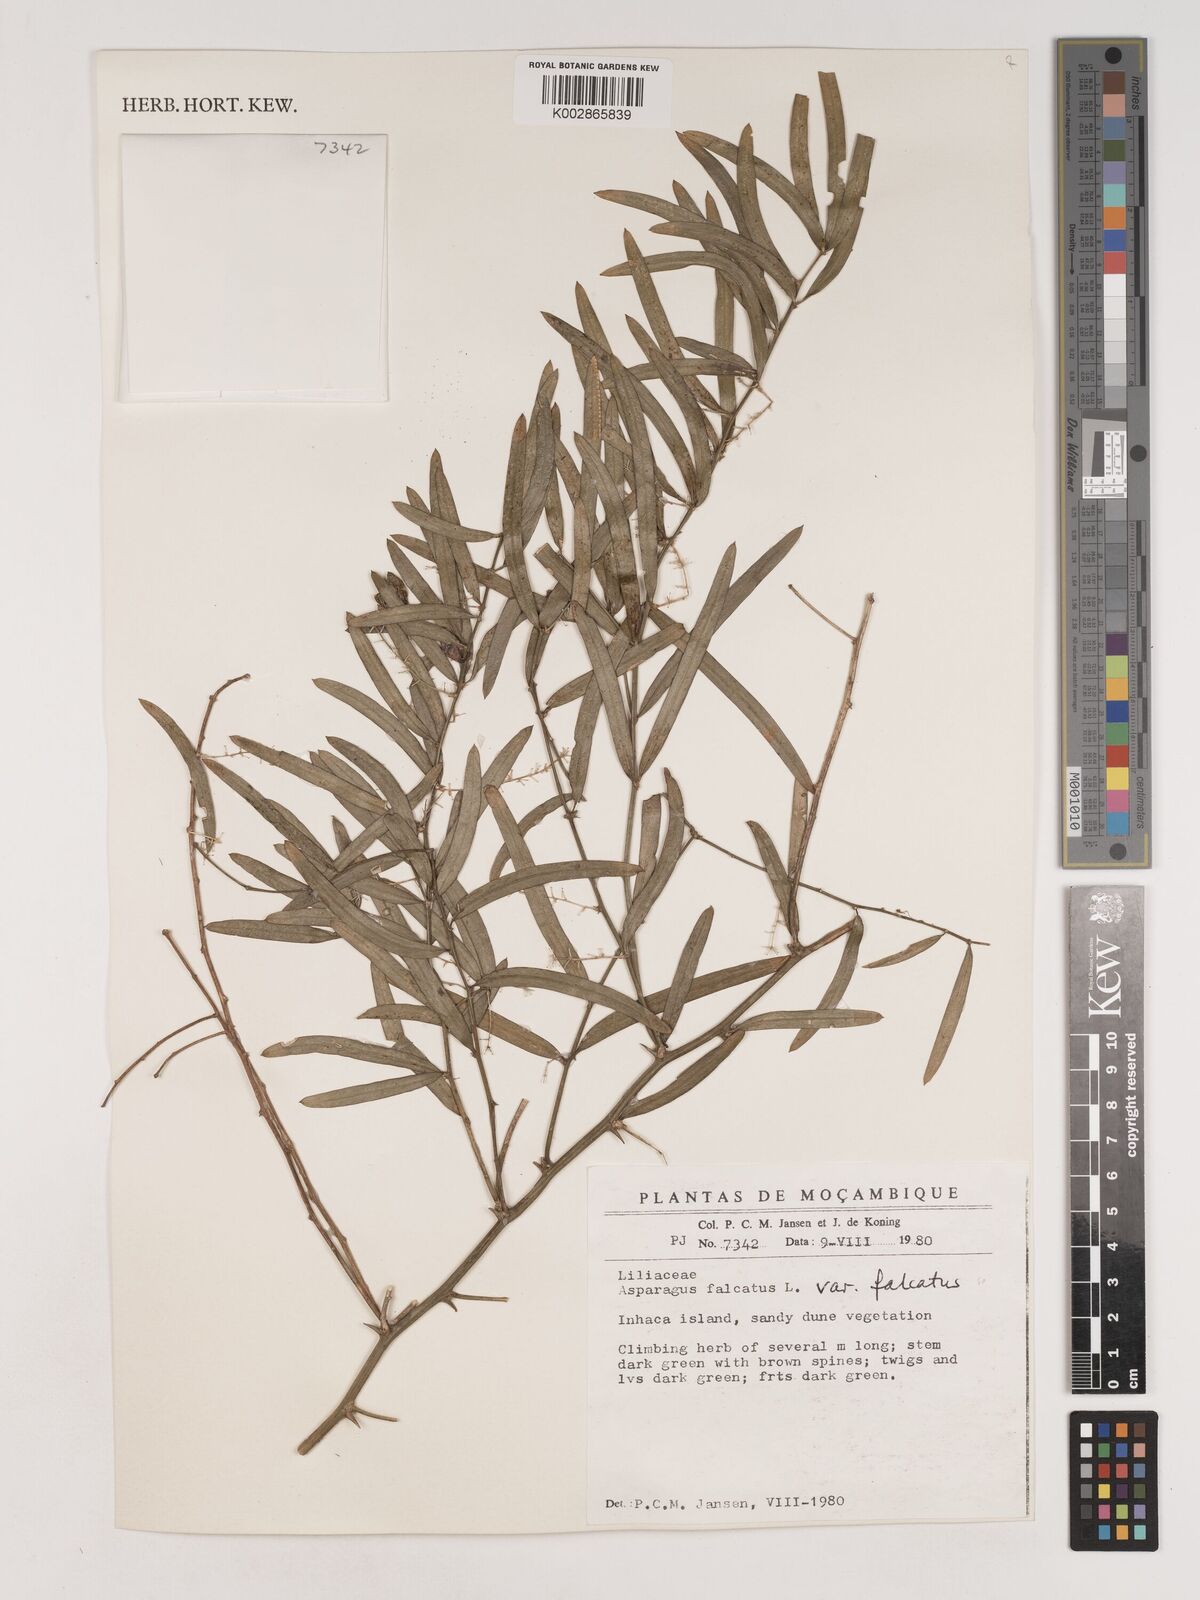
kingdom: Plantae
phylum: Tracheophyta
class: Liliopsida
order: Asparagales
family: Asparagaceae
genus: Asparagus
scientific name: Asparagus falcatus
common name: Asparagus
